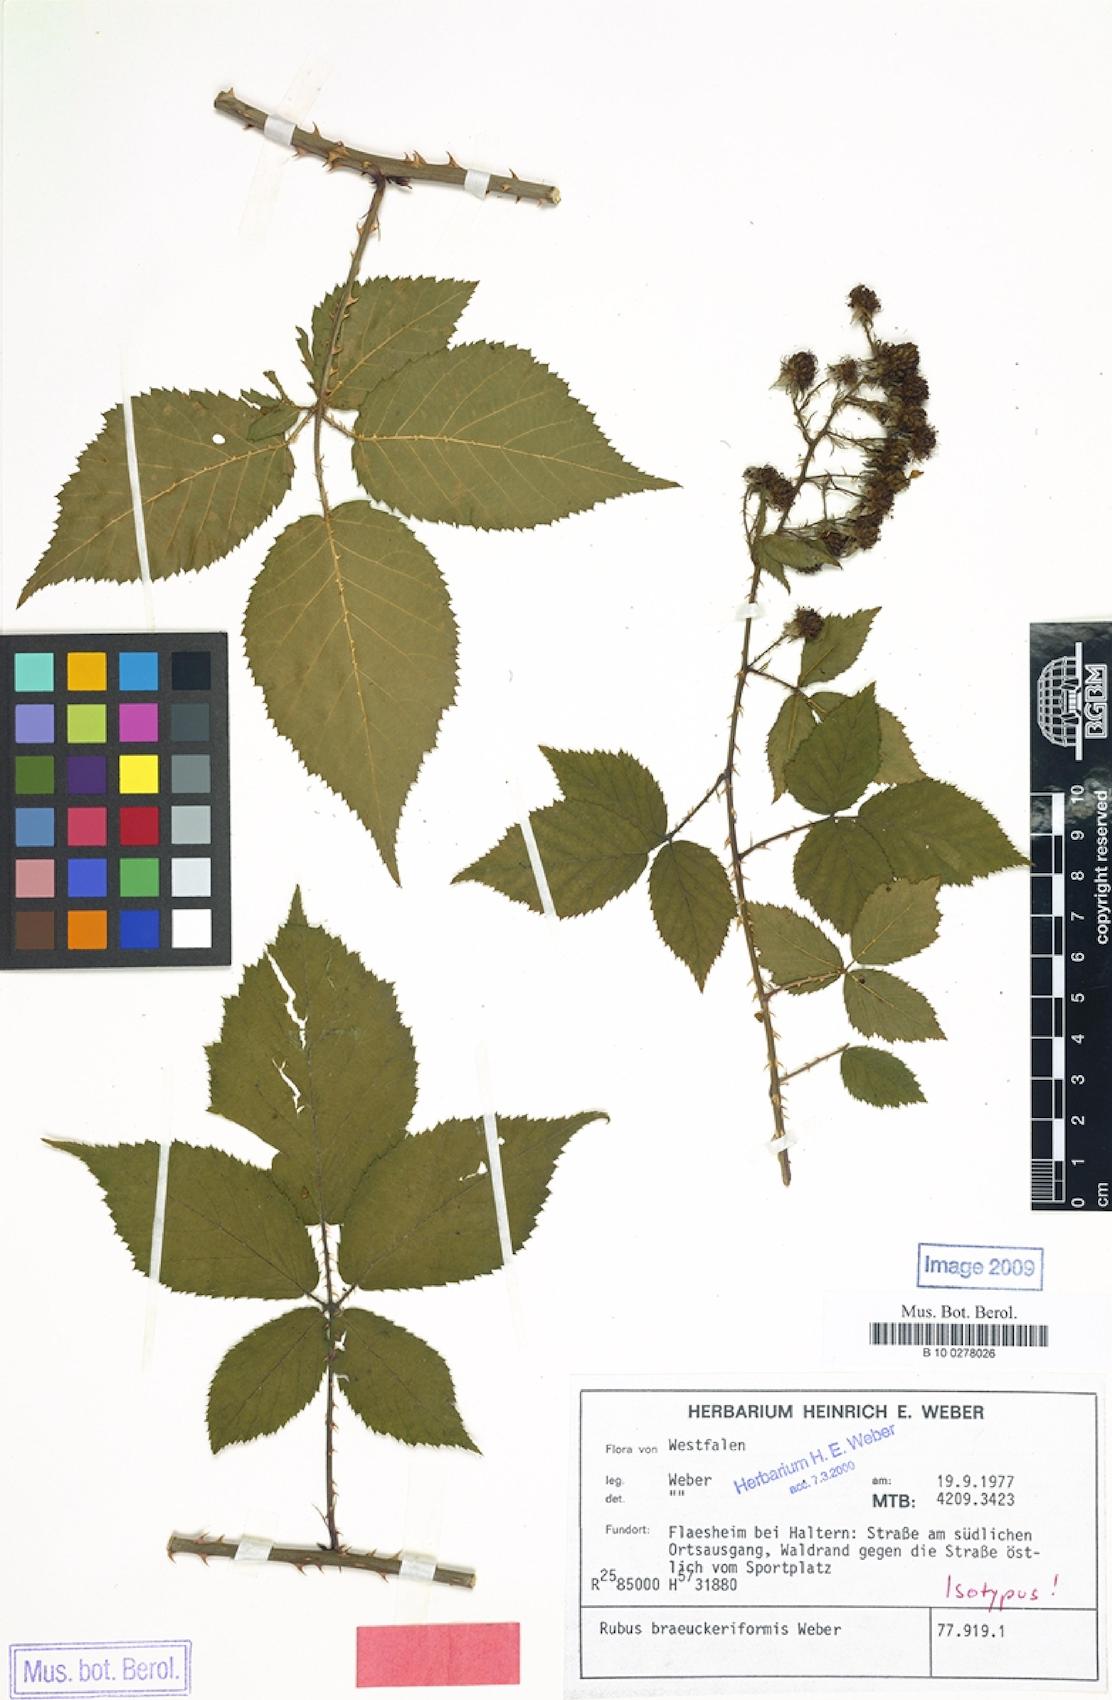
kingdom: Plantae
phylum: Tracheophyta
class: Magnoliopsida
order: Rosales
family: Rosaceae
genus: Rubus
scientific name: Rubus braeuckeriformis
